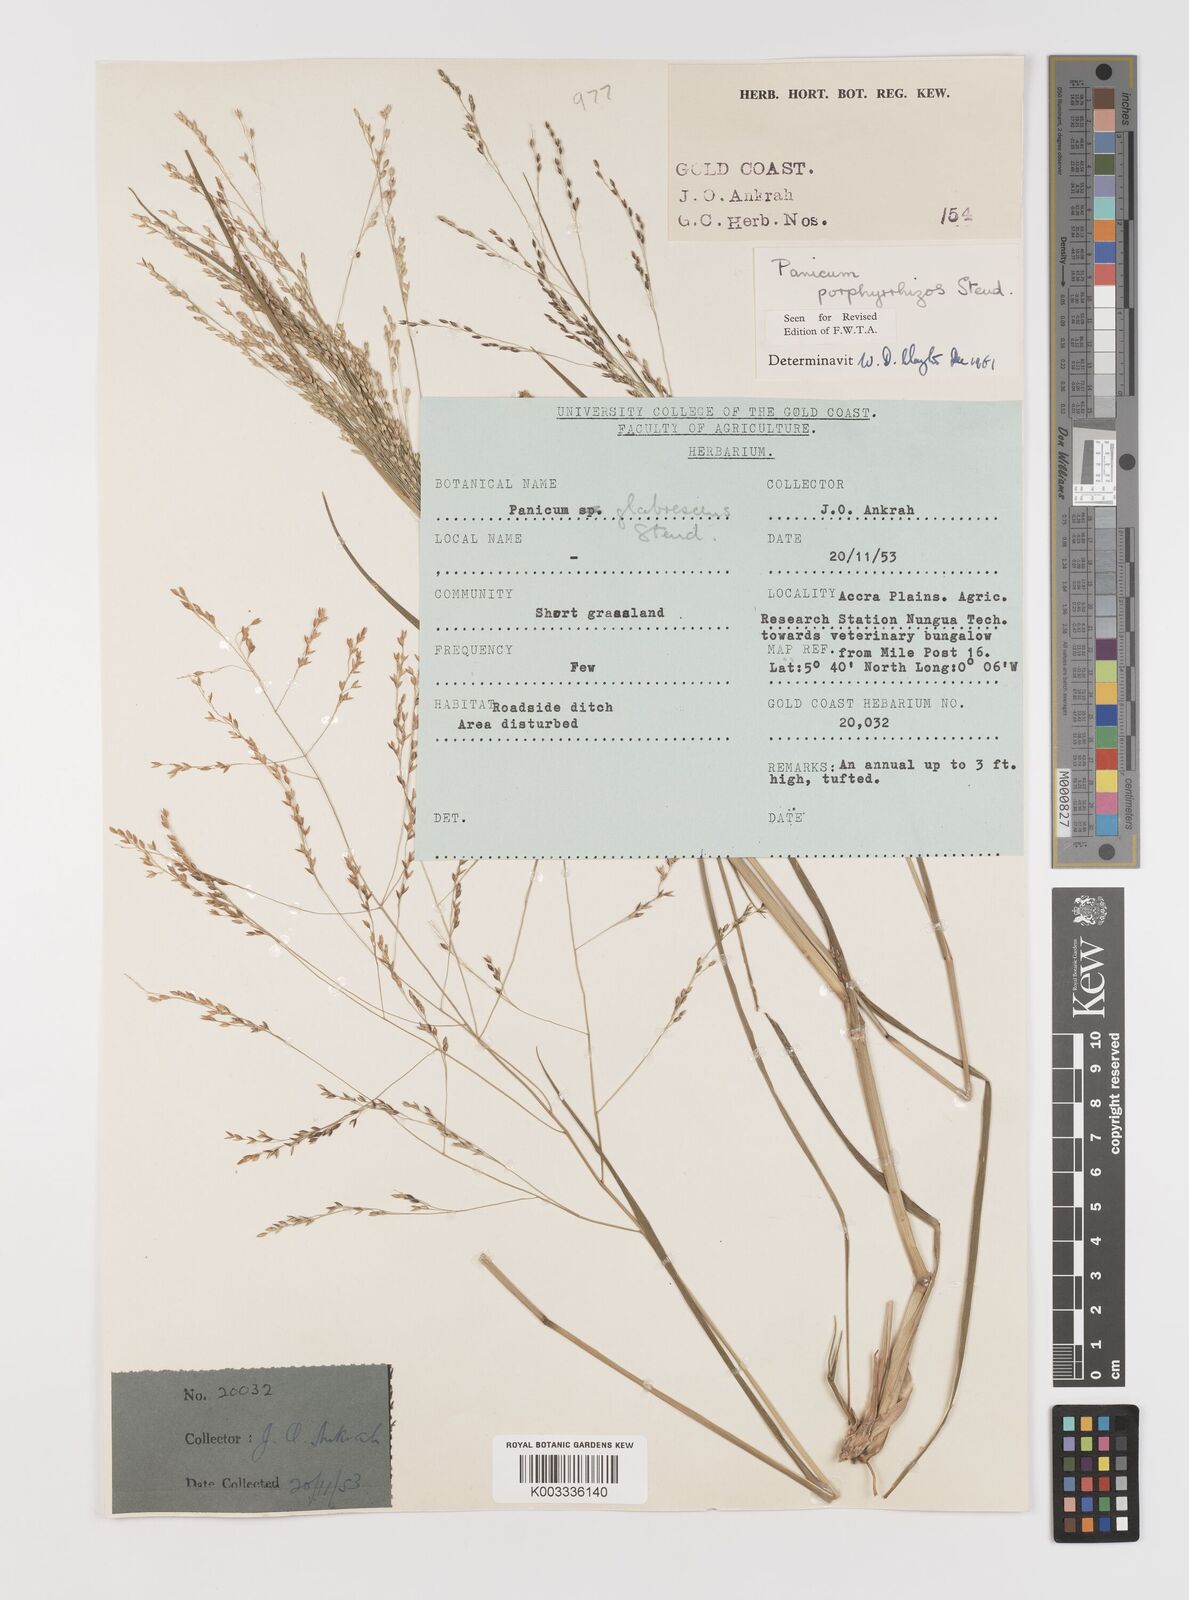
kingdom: Plantae
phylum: Tracheophyta
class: Liliopsida
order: Poales
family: Poaceae
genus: Panicum
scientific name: Panicum porphyrrhizos
